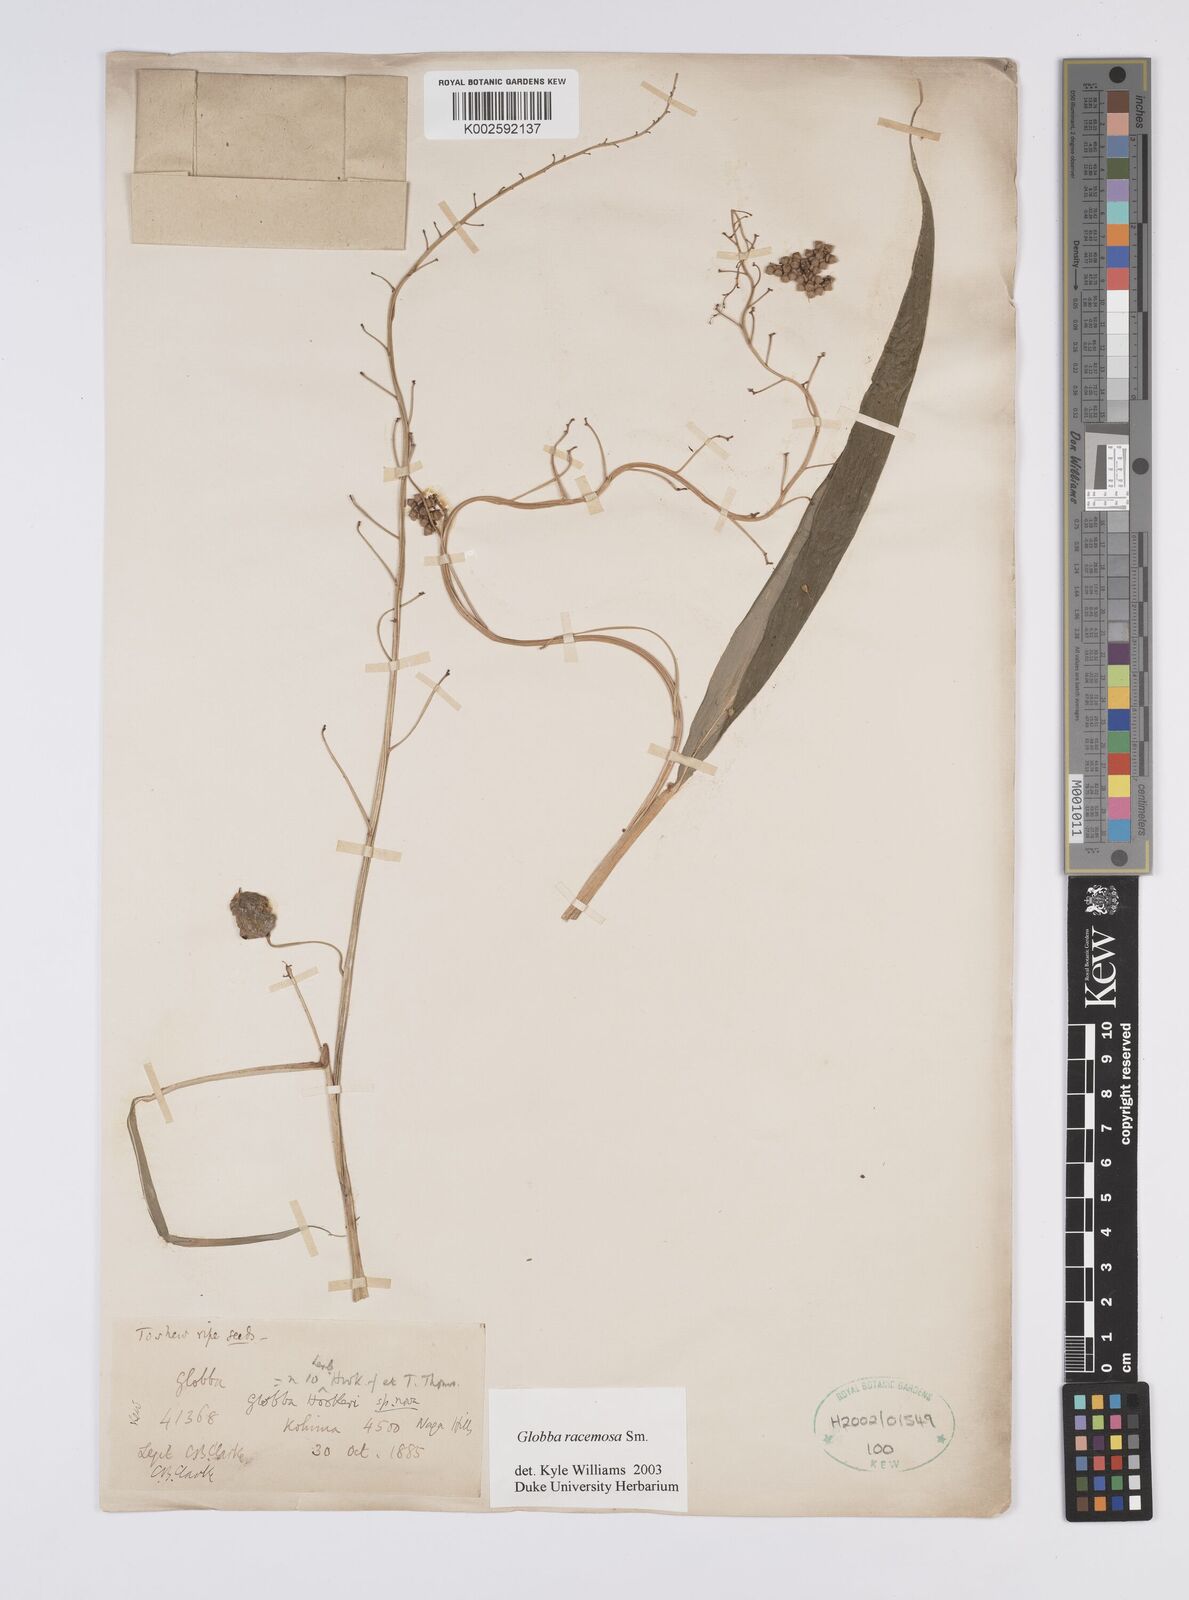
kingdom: Plantae
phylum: Tracheophyta
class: Liliopsida
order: Zingiberales
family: Zingiberaceae
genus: Globba
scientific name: Globba racemosa
